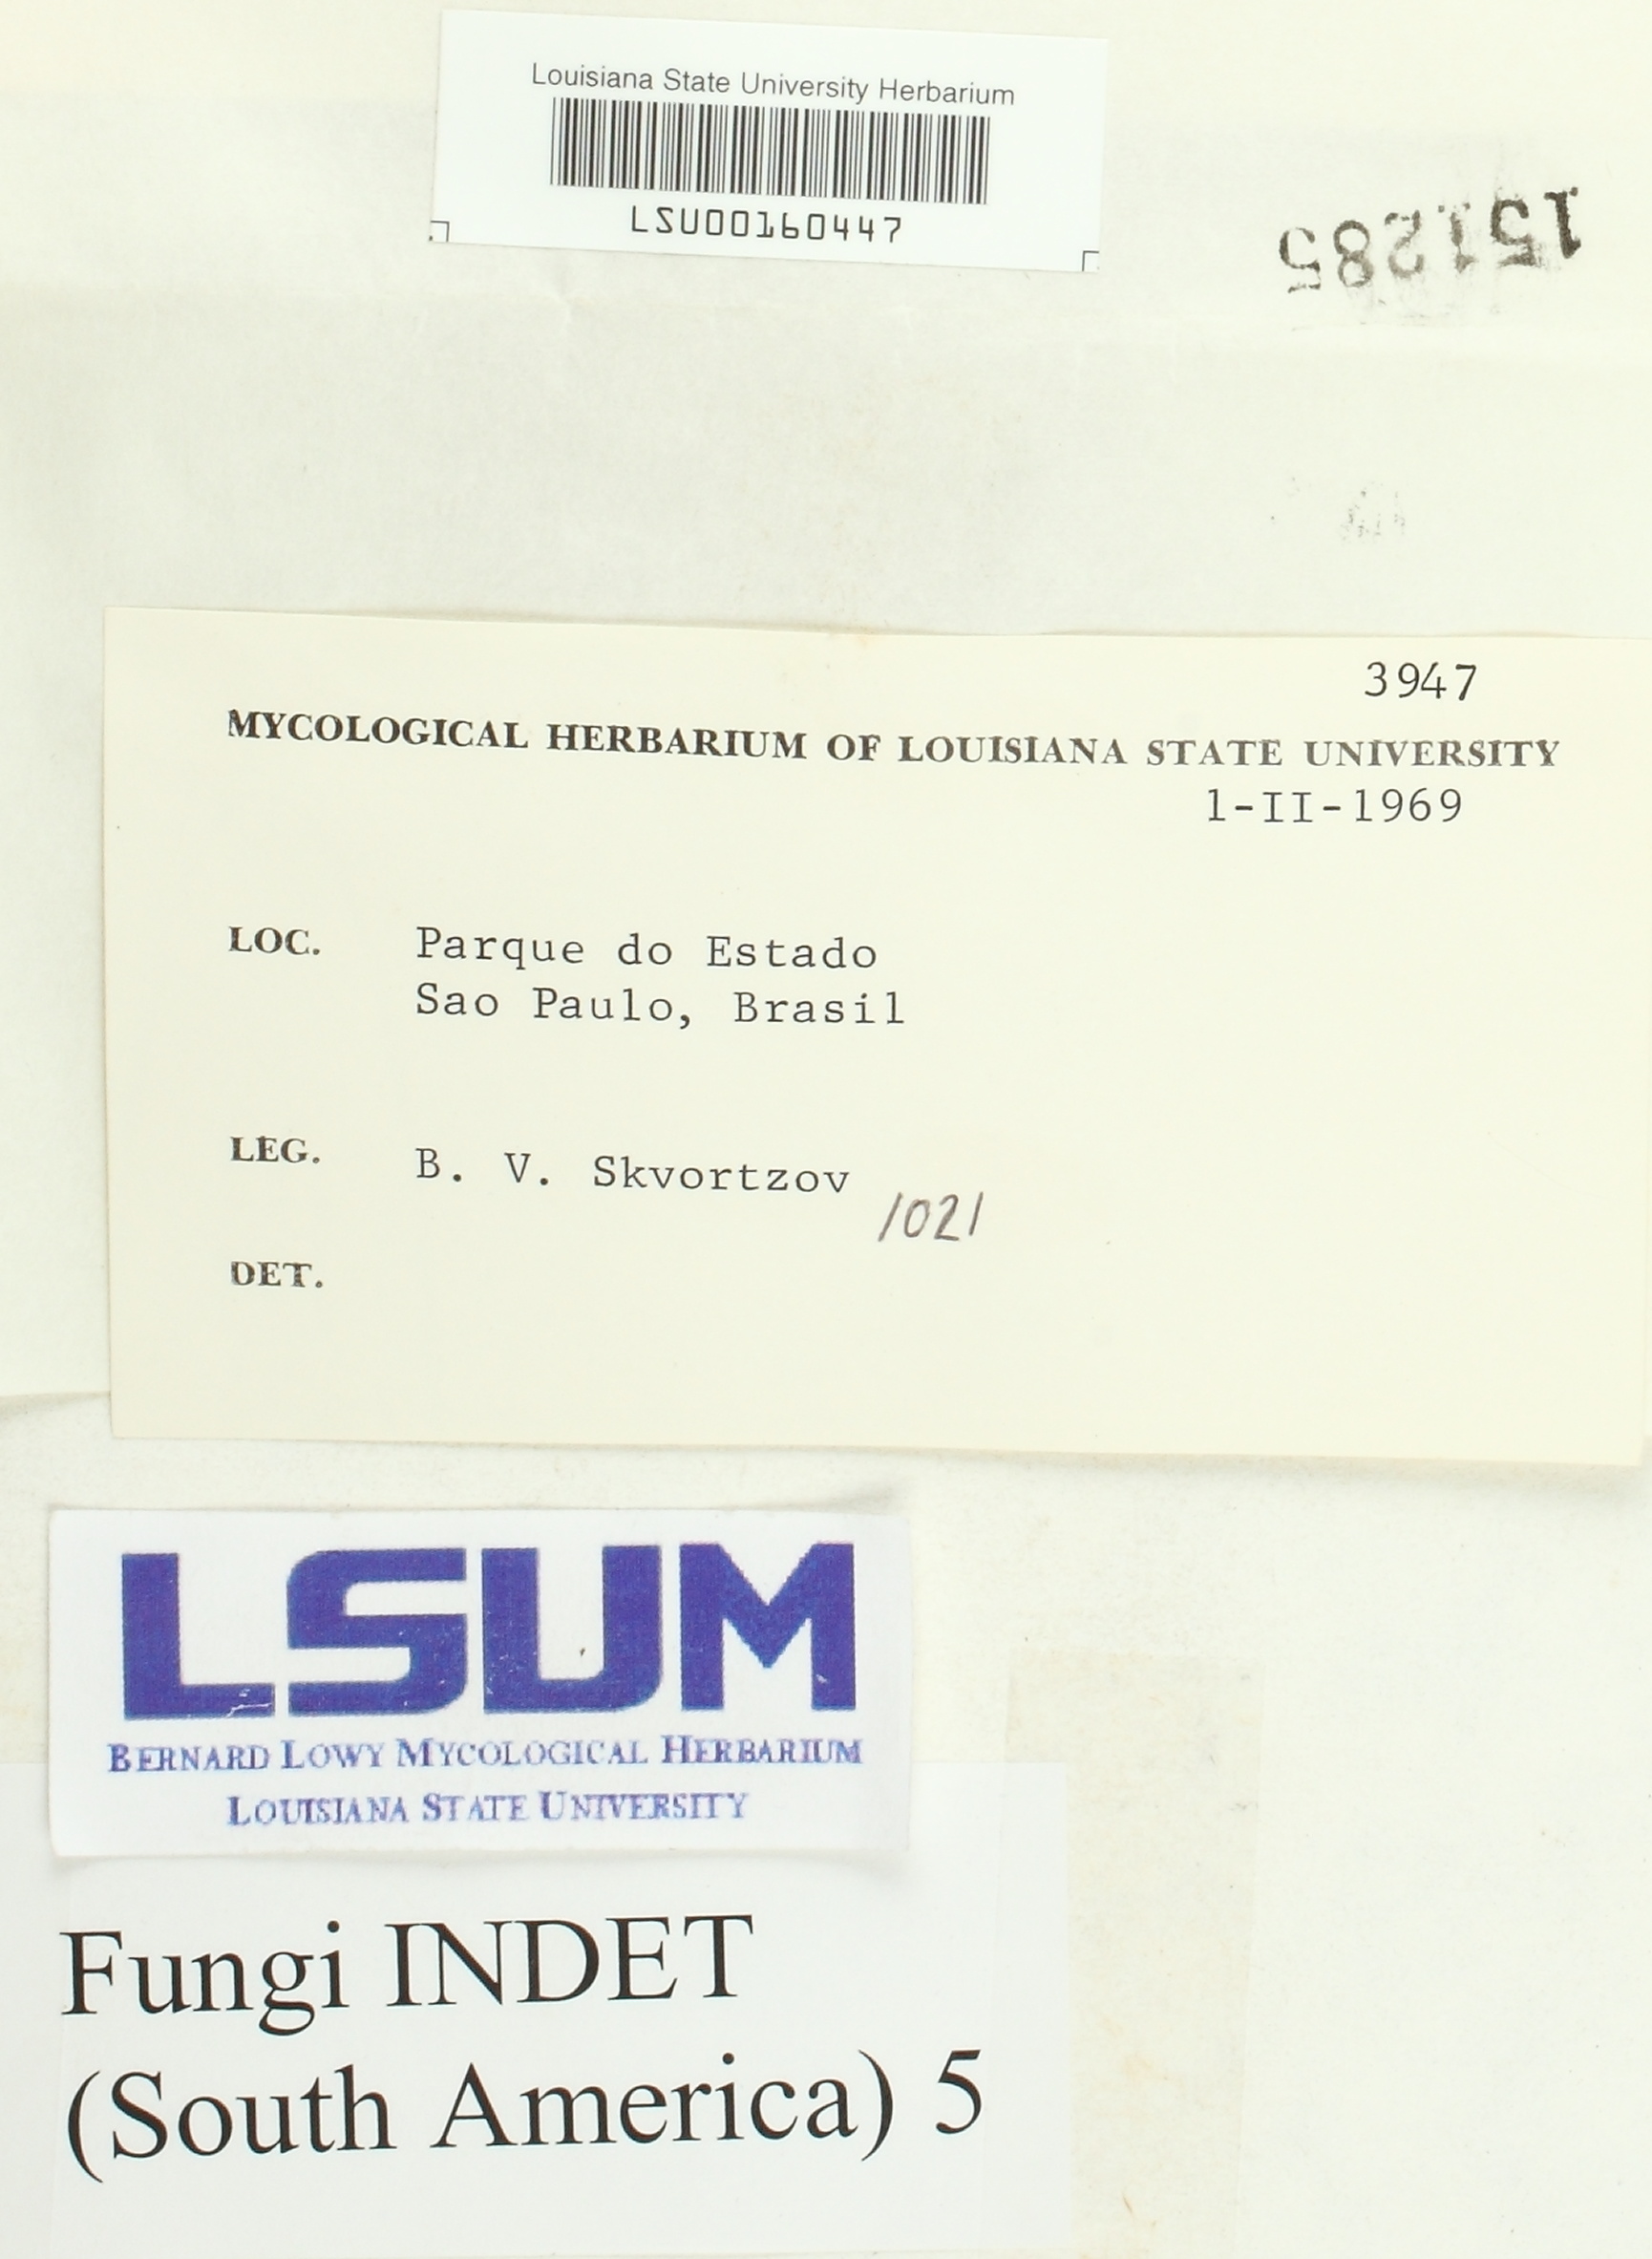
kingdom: Fungi
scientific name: Fungi
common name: Fungi
